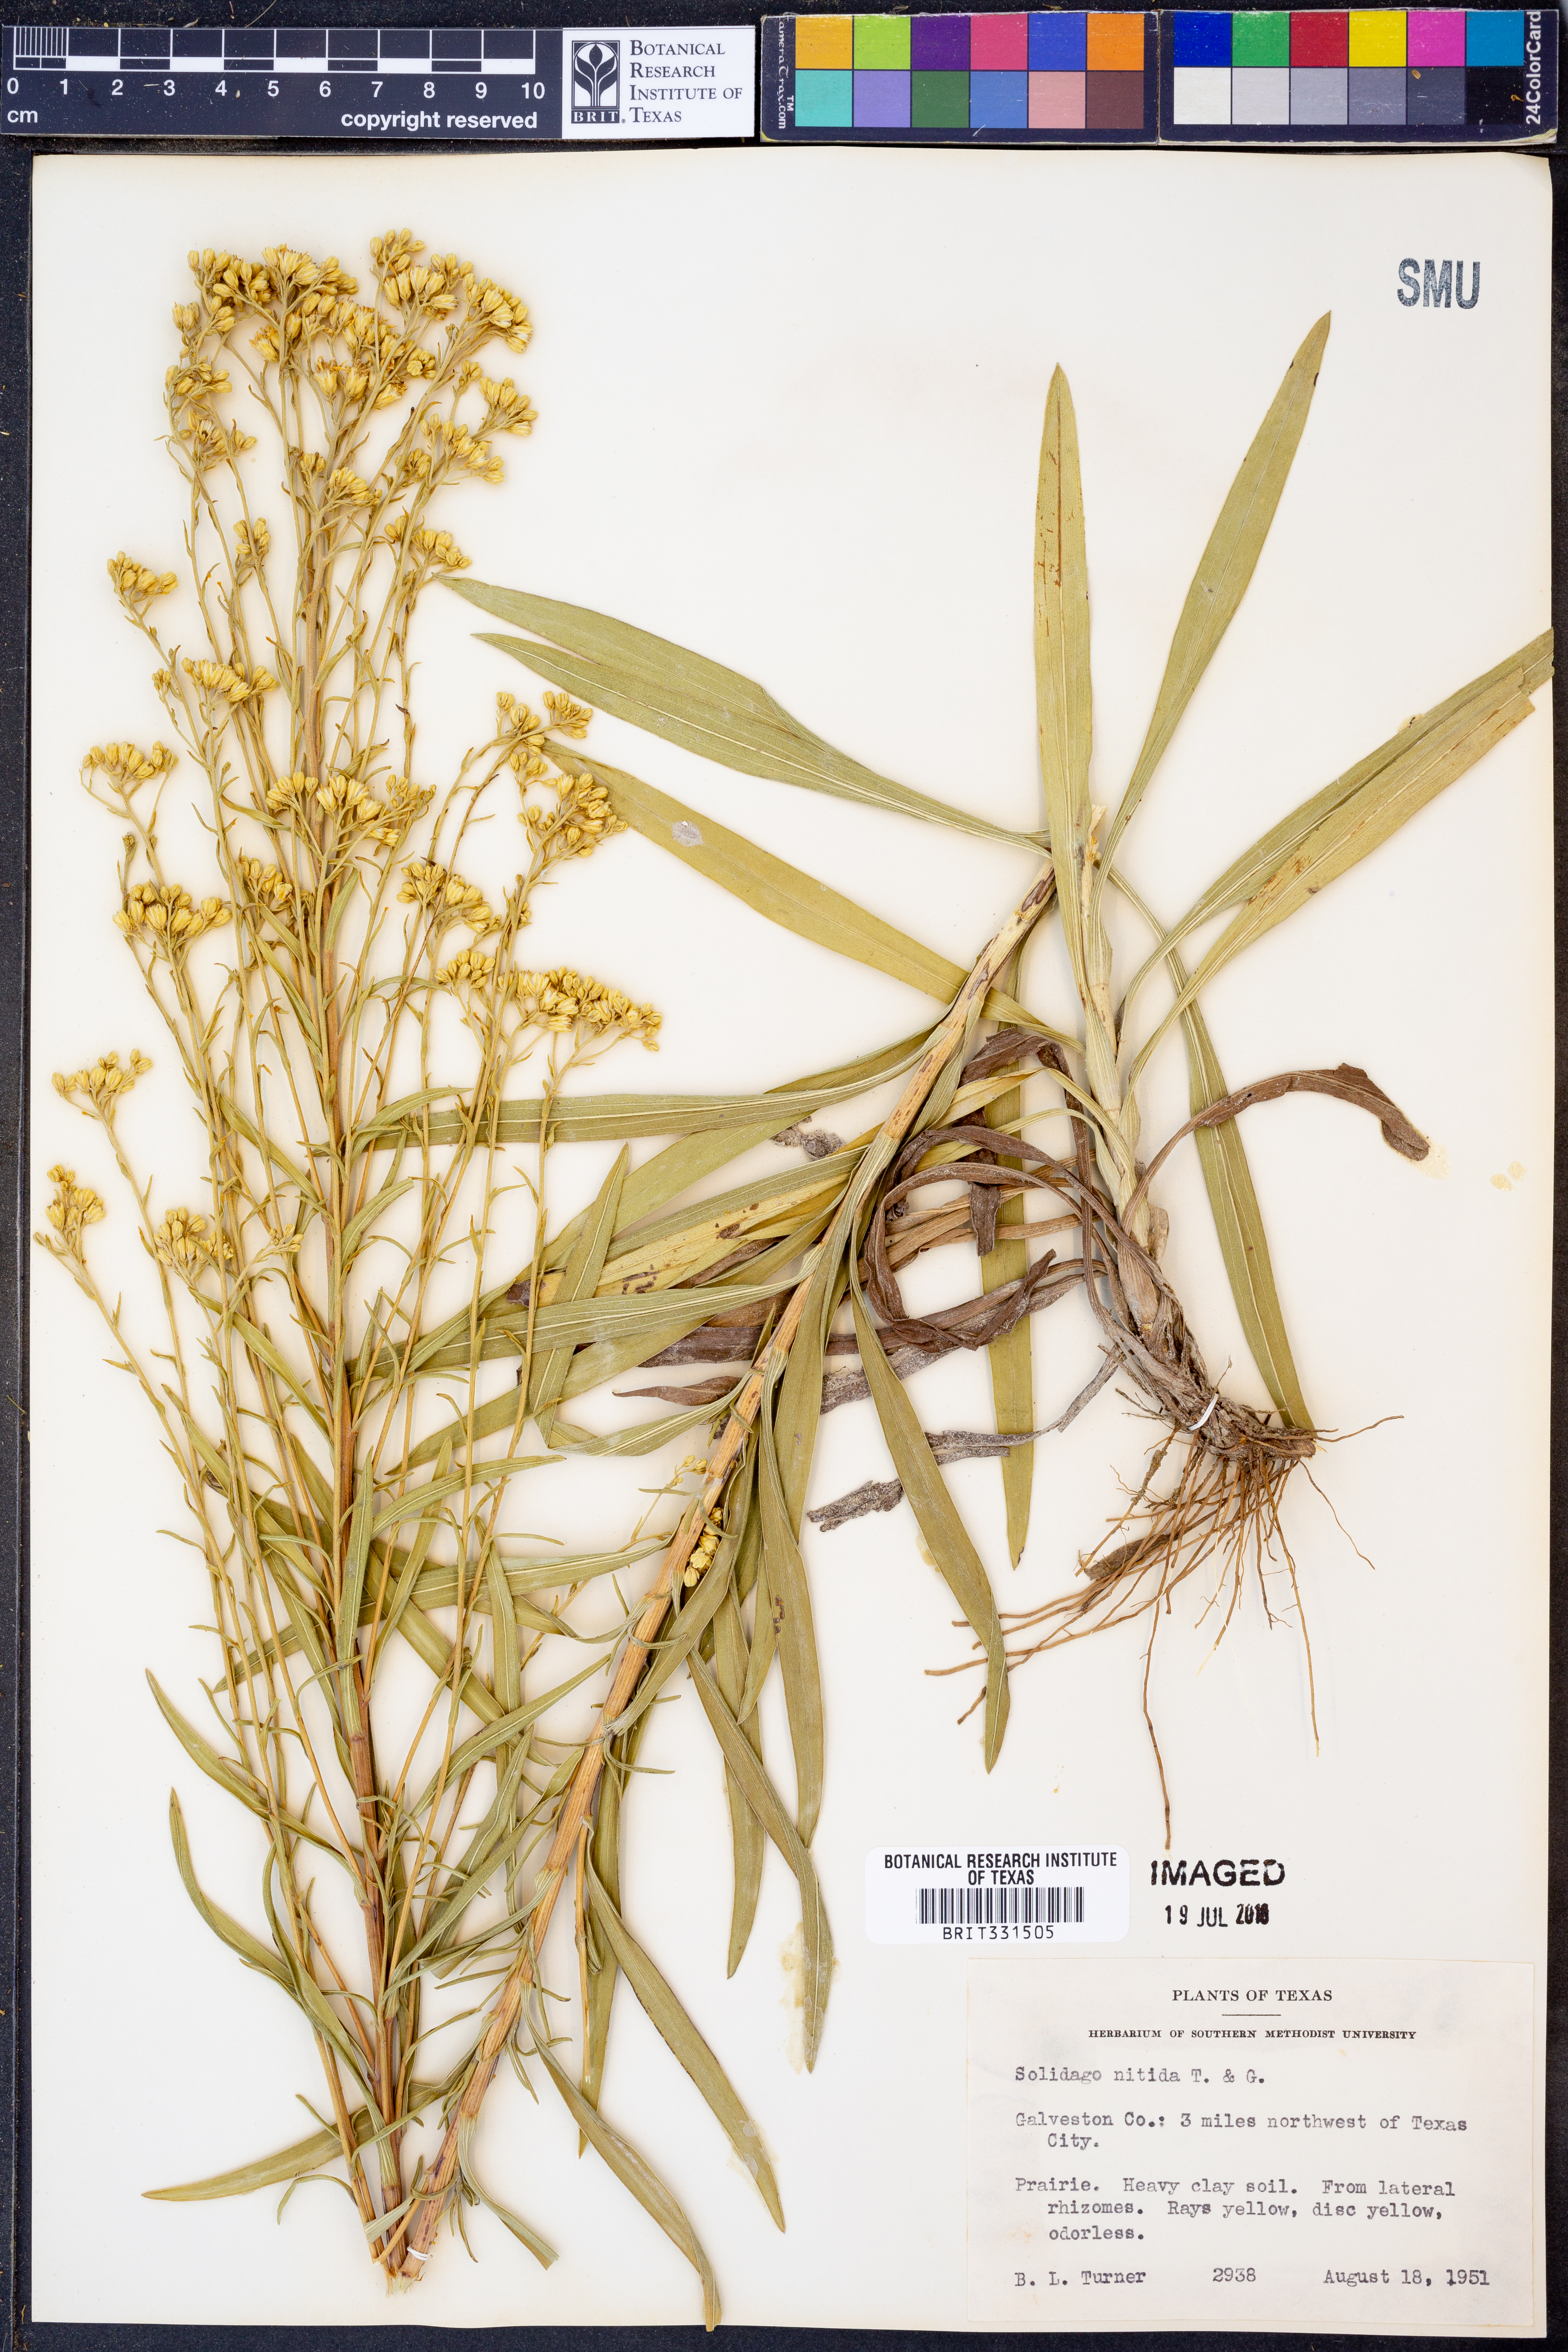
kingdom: Plantae
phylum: Tracheophyta
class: Magnoliopsida
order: Asterales
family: Asteraceae
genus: Solidago
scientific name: Solidago nitida
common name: Shiny goldenrod
